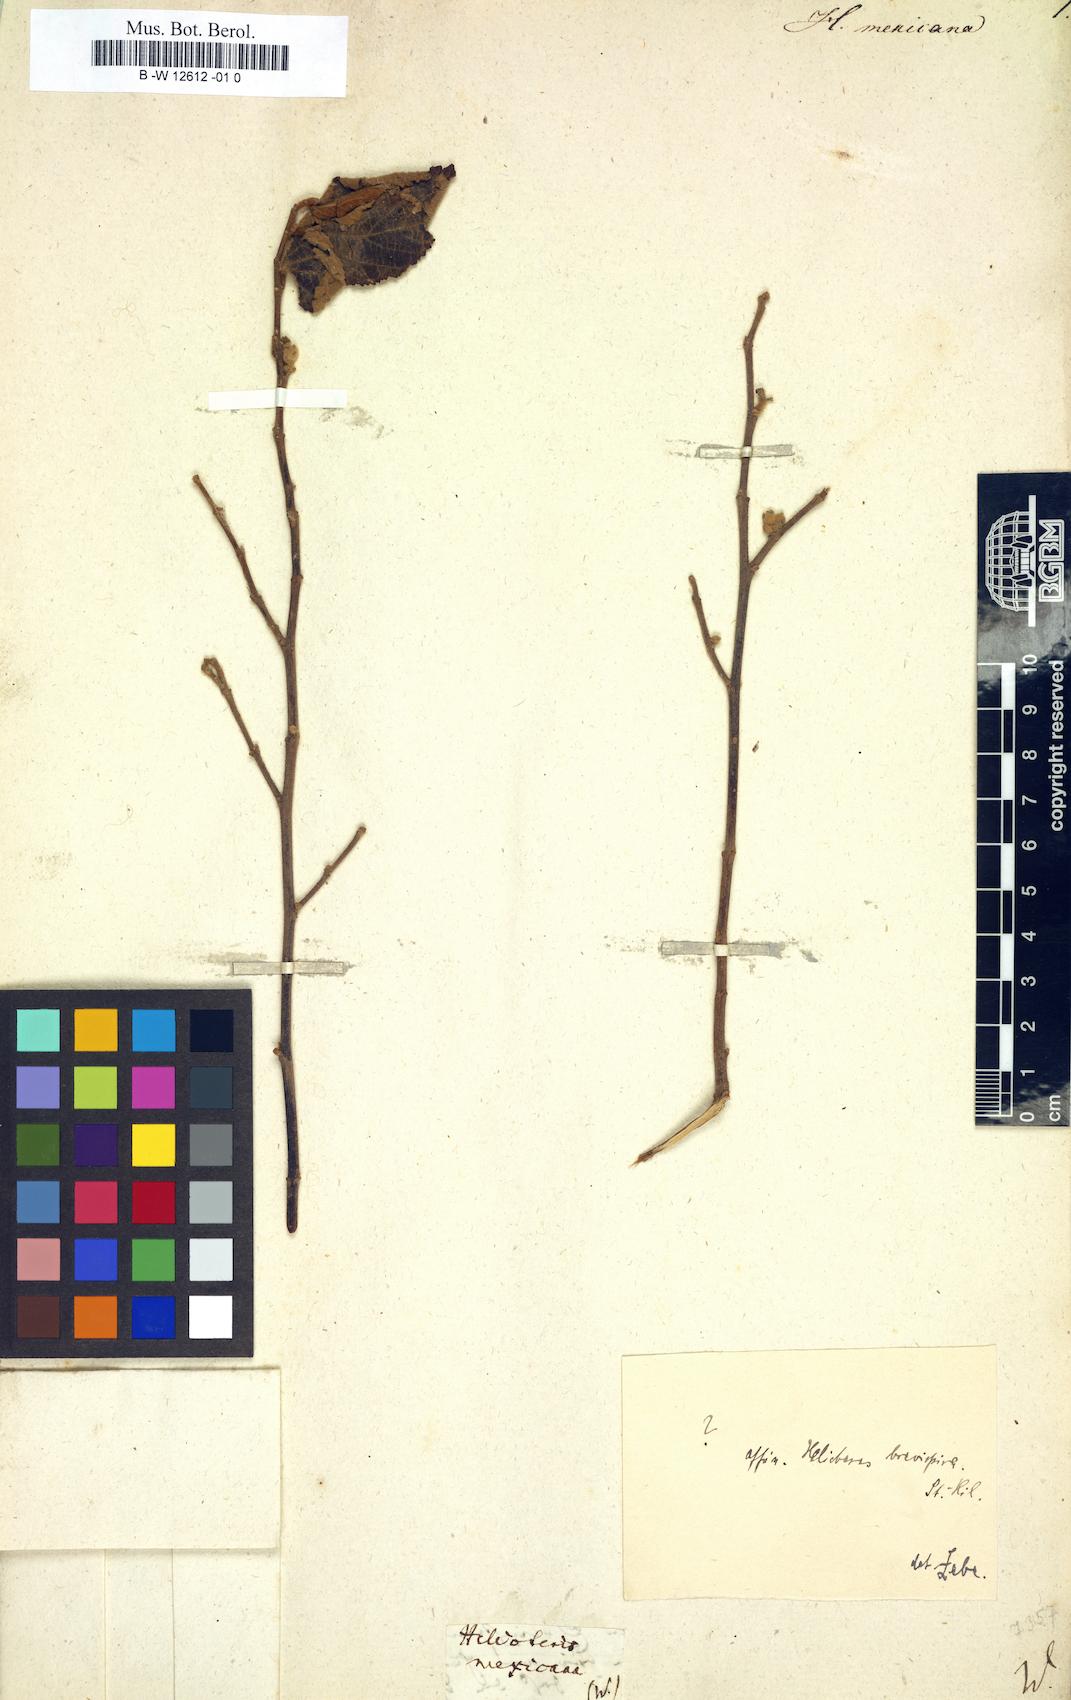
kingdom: Plantae
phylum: Tracheophyta
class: Magnoliopsida
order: Malvales
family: Malvaceae
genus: Helicteres
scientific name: Helicteres guazumifolia
